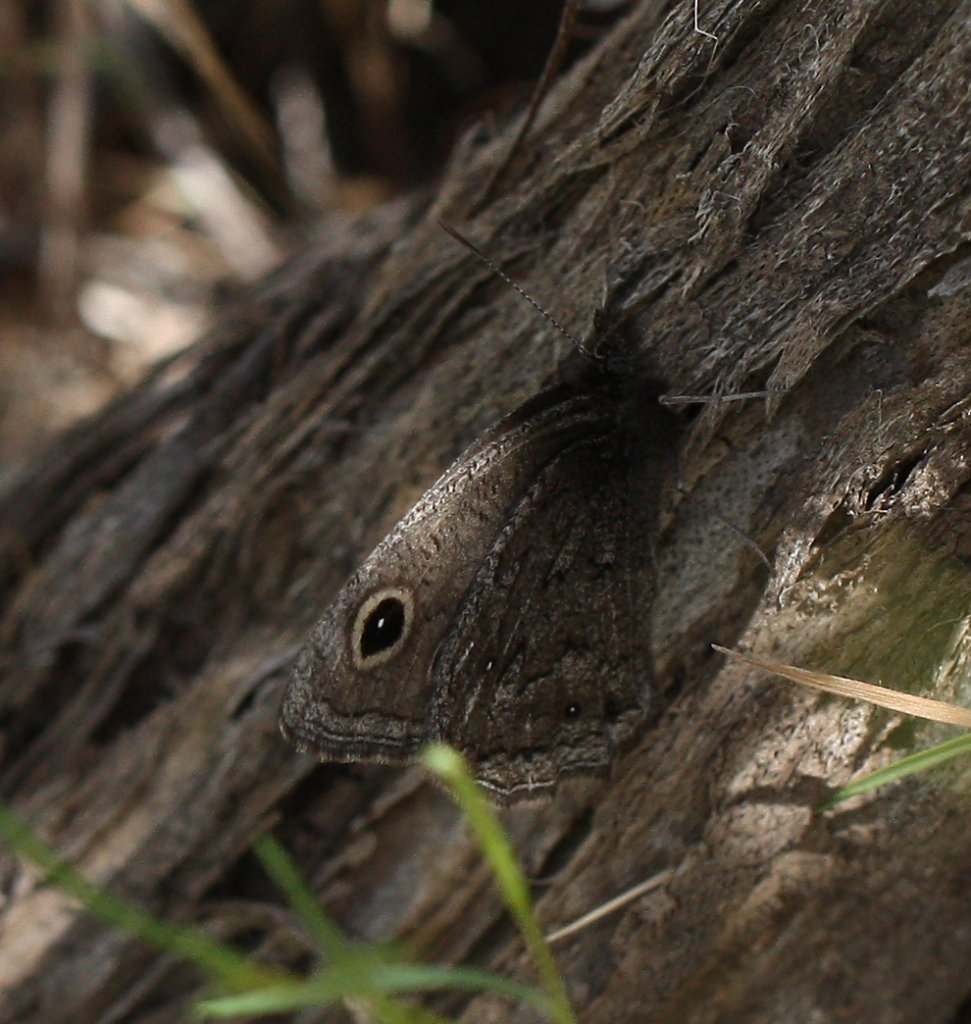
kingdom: Animalia
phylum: Arthropoda
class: Insecta
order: Lepidoptera
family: Nymphalidae
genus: Cercyonis
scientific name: Cercyonis oetus
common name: Small Wood-Nymph
